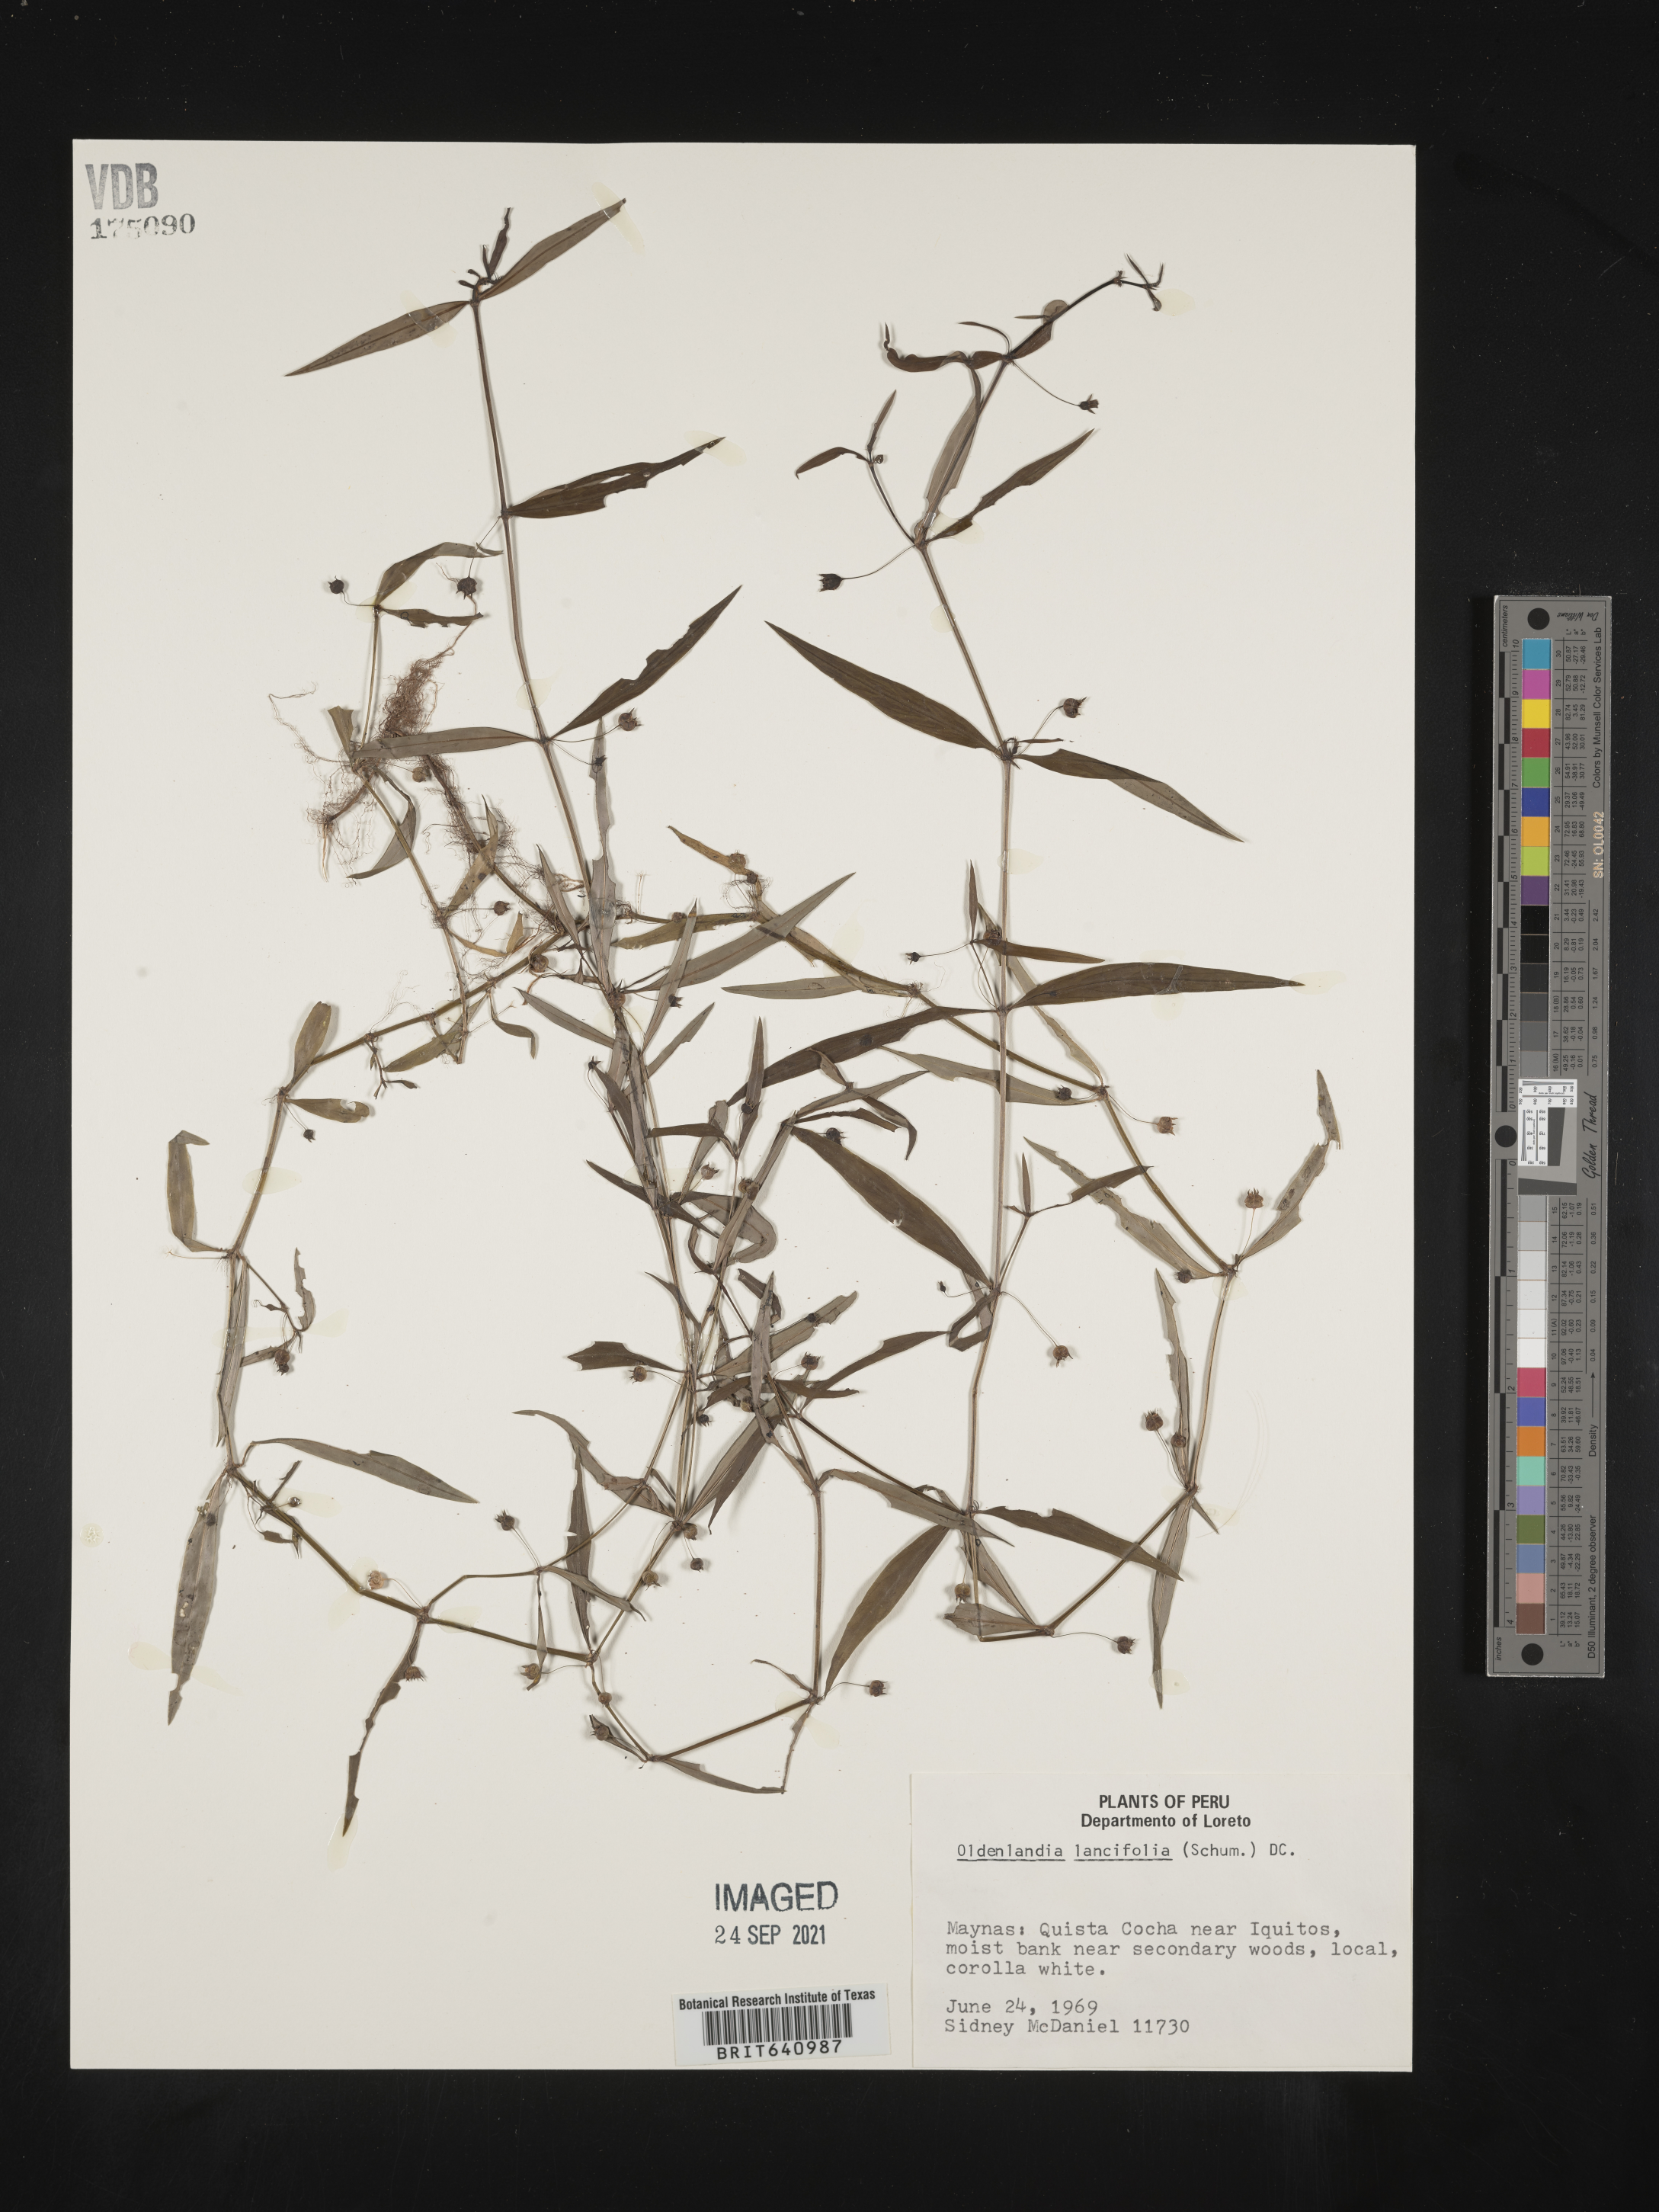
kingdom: Plantae
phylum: Tracheophyta
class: Magnoliopsida
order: Gentianales
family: Rubiaceae
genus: Oldenlandia
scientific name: Oldenlandia
